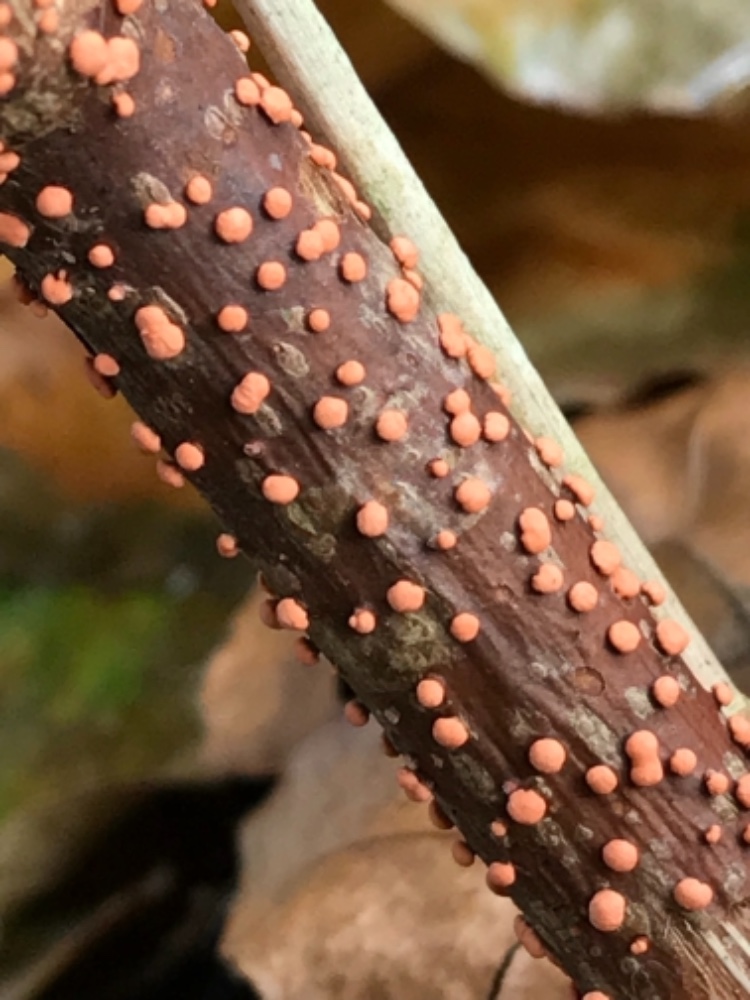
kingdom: Fungi
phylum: Ascomycota
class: Sordariomycetes
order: Hypocreales
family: Nectriaceae
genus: Nectria
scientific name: Nectria cinnabarina
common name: almindelig cinnobersvamp
